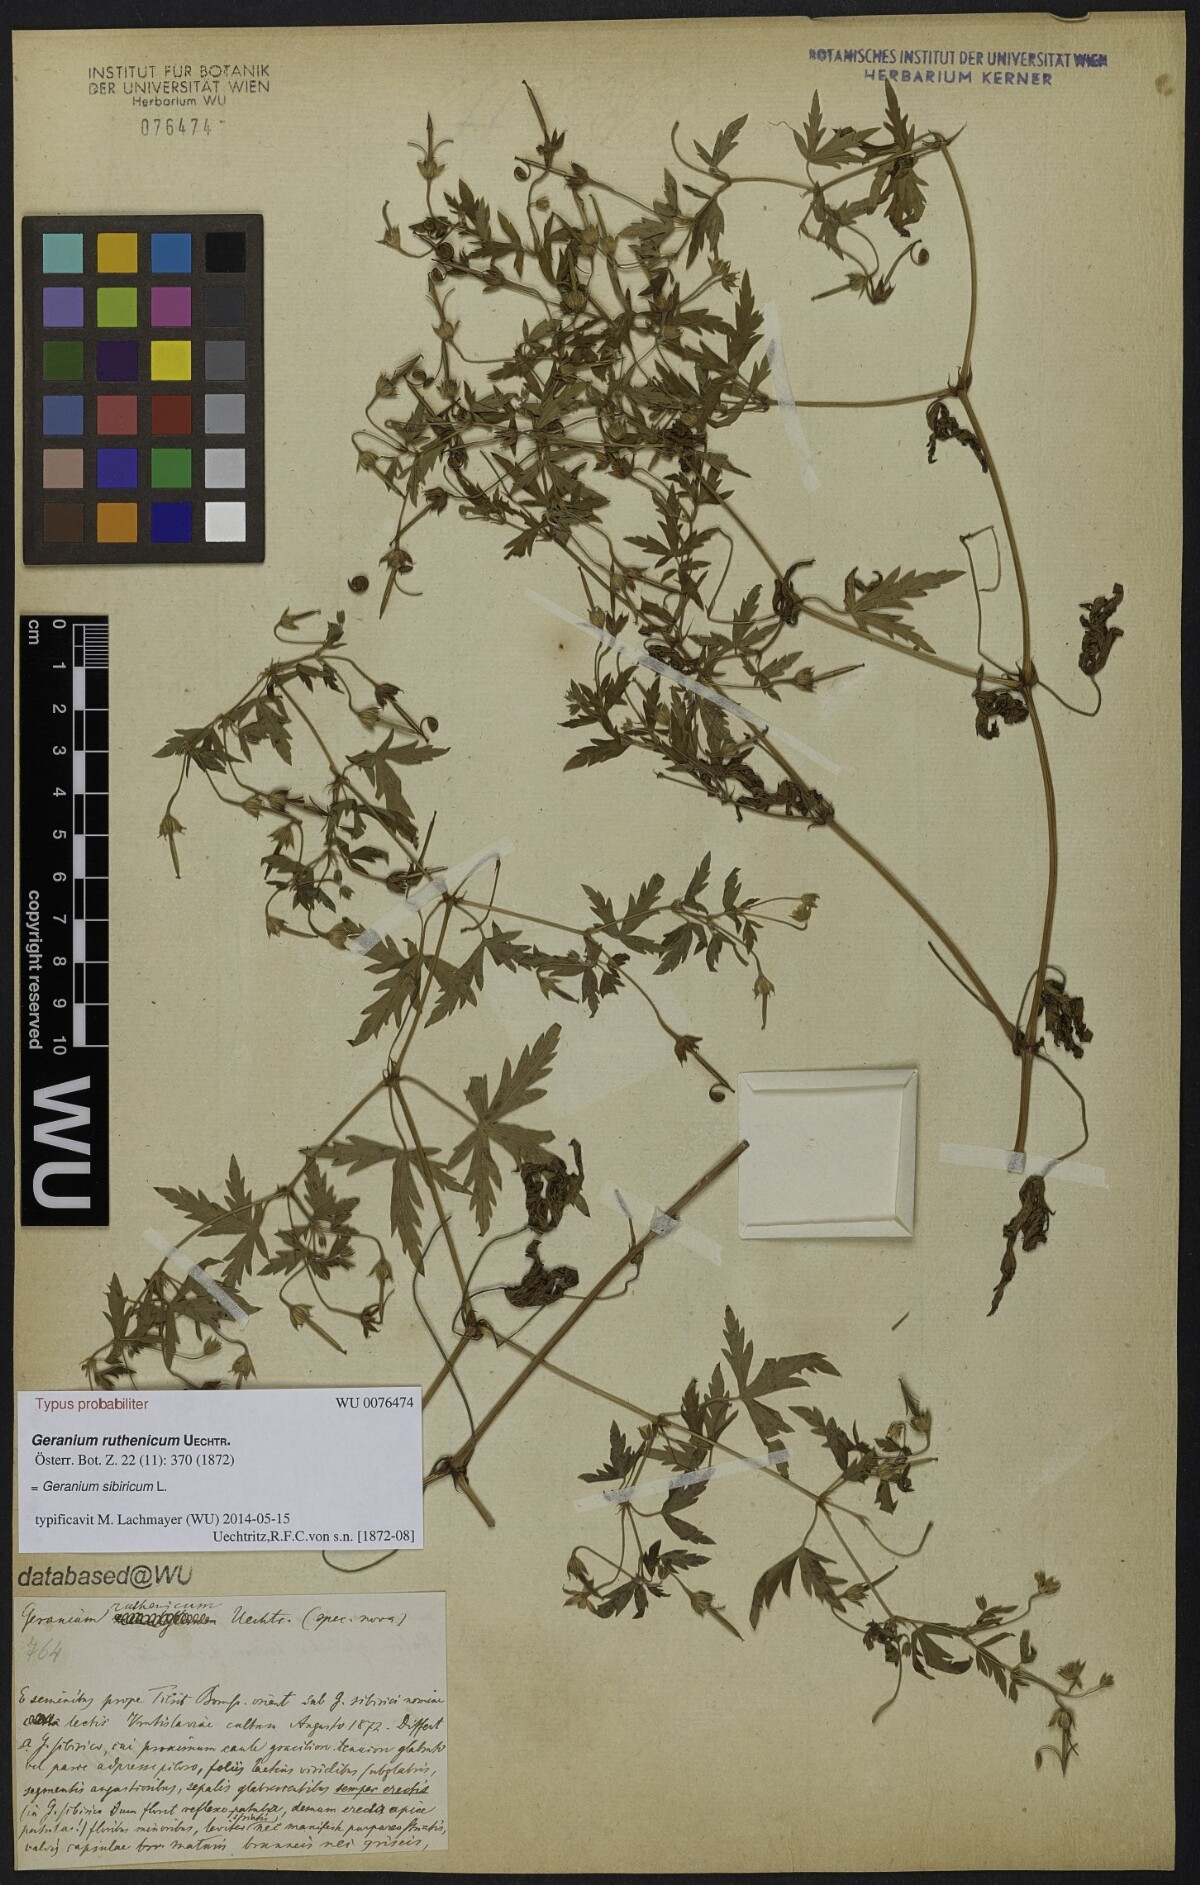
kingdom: Plantae
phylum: Tracheophyta
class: Magnoliopsida
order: Geraniales
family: Geraniaceae
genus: Geranium
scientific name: Geranium sibiricum
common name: Siberian crane's-bill
